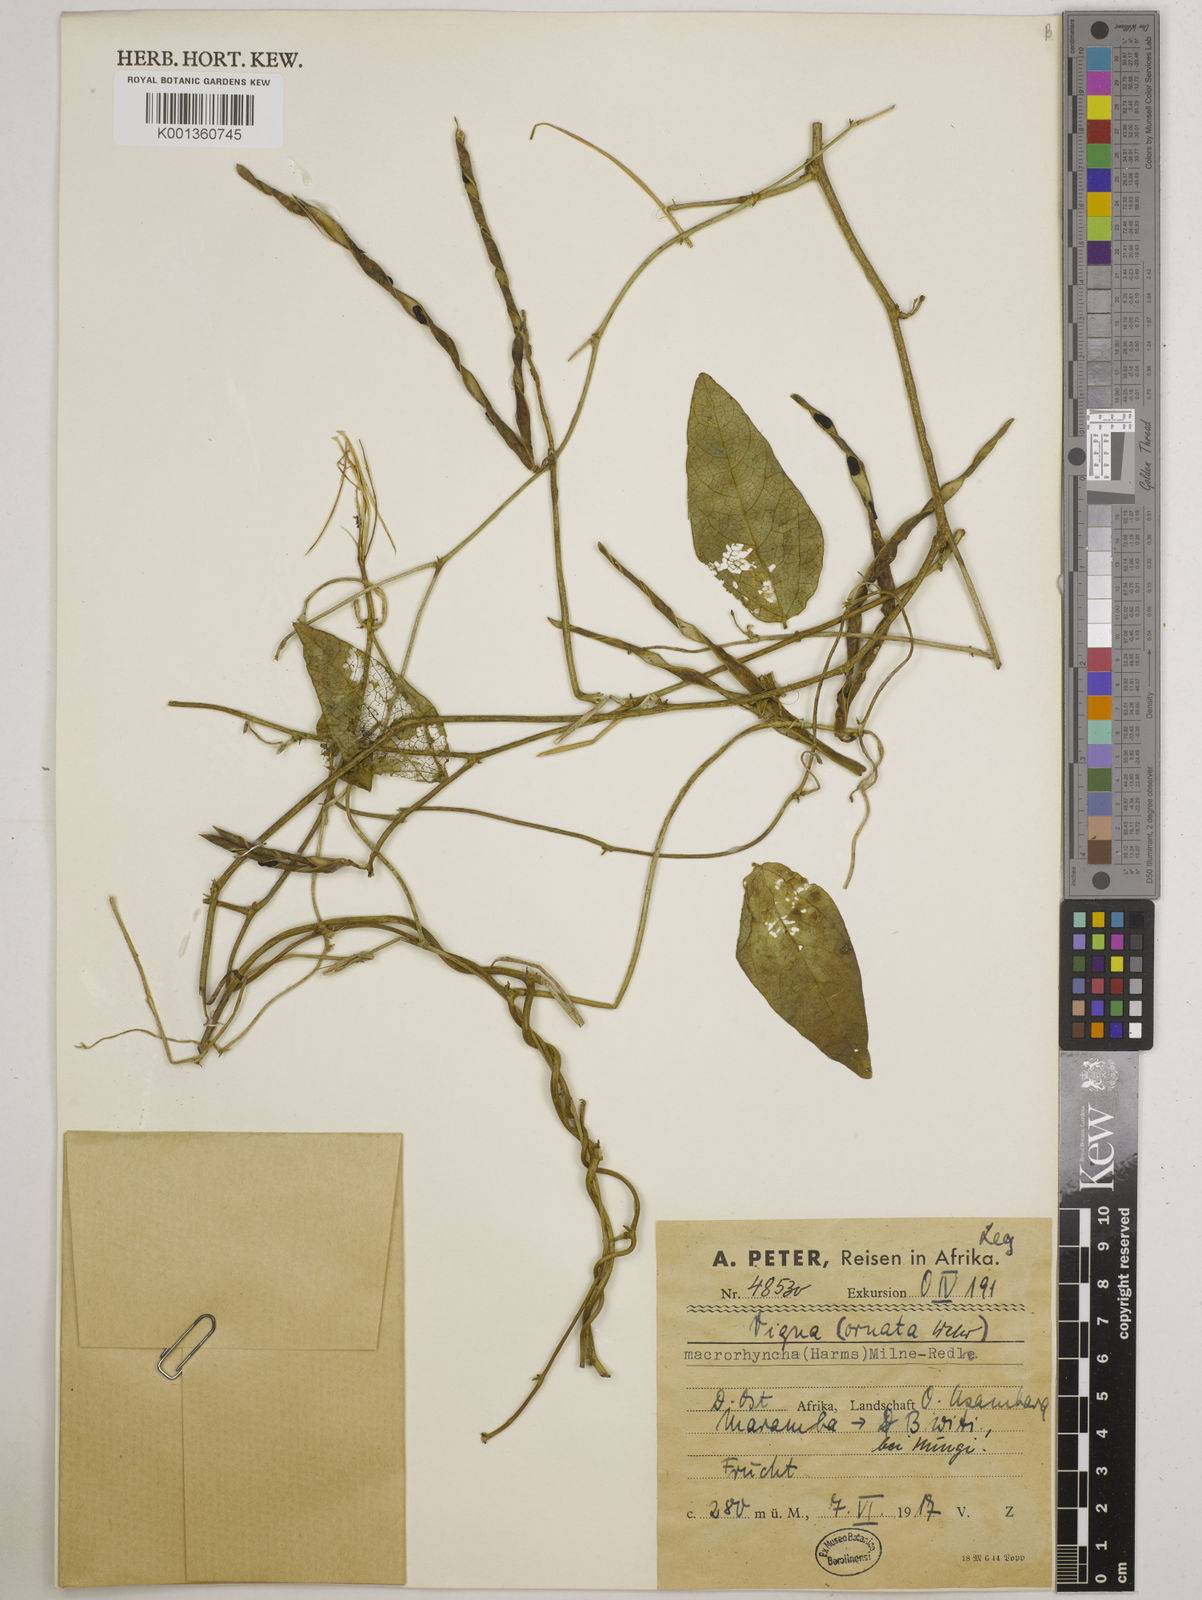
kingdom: Plantae
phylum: Tracheophyta
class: Magnoliopsida
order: Fabales
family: Fabaceae
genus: Wajira
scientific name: Wajira grahamiana
